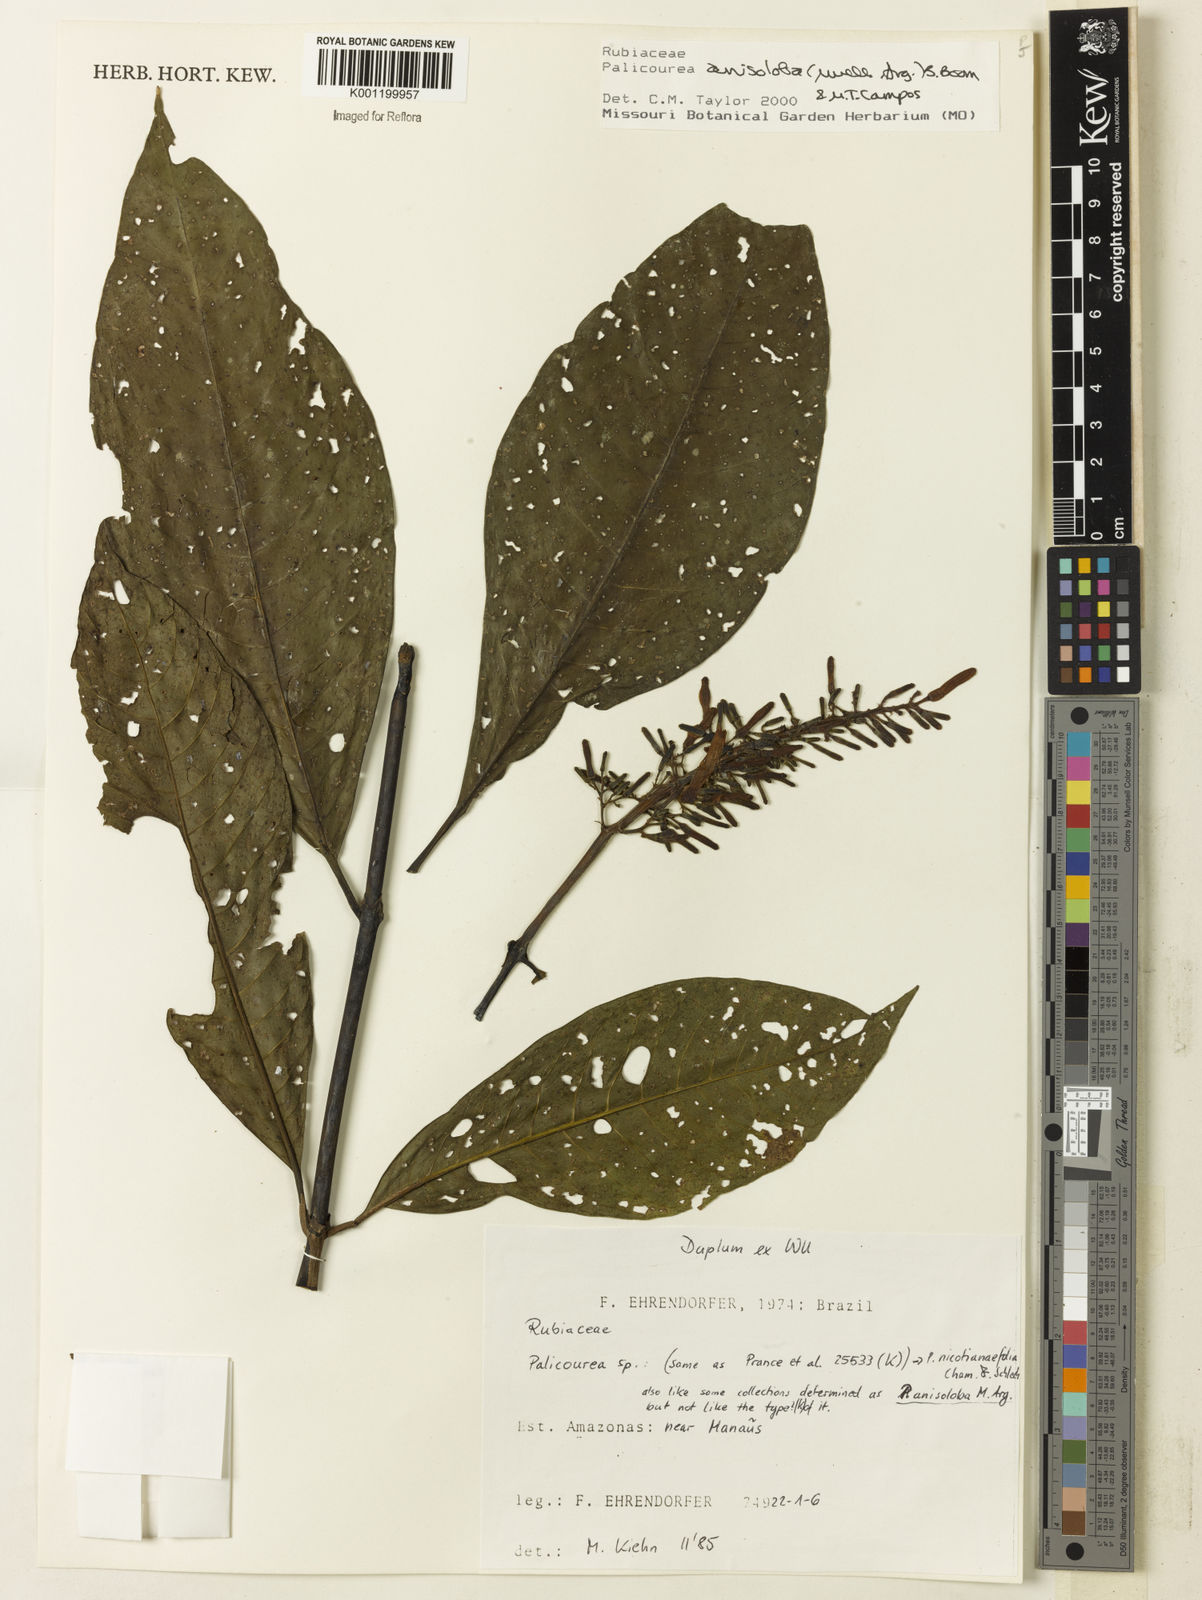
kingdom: Plantae
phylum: Tracheophyta
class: Magnoliopsida
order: Gentianales
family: Rubiaceae
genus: Palicourea
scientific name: Palicourea
